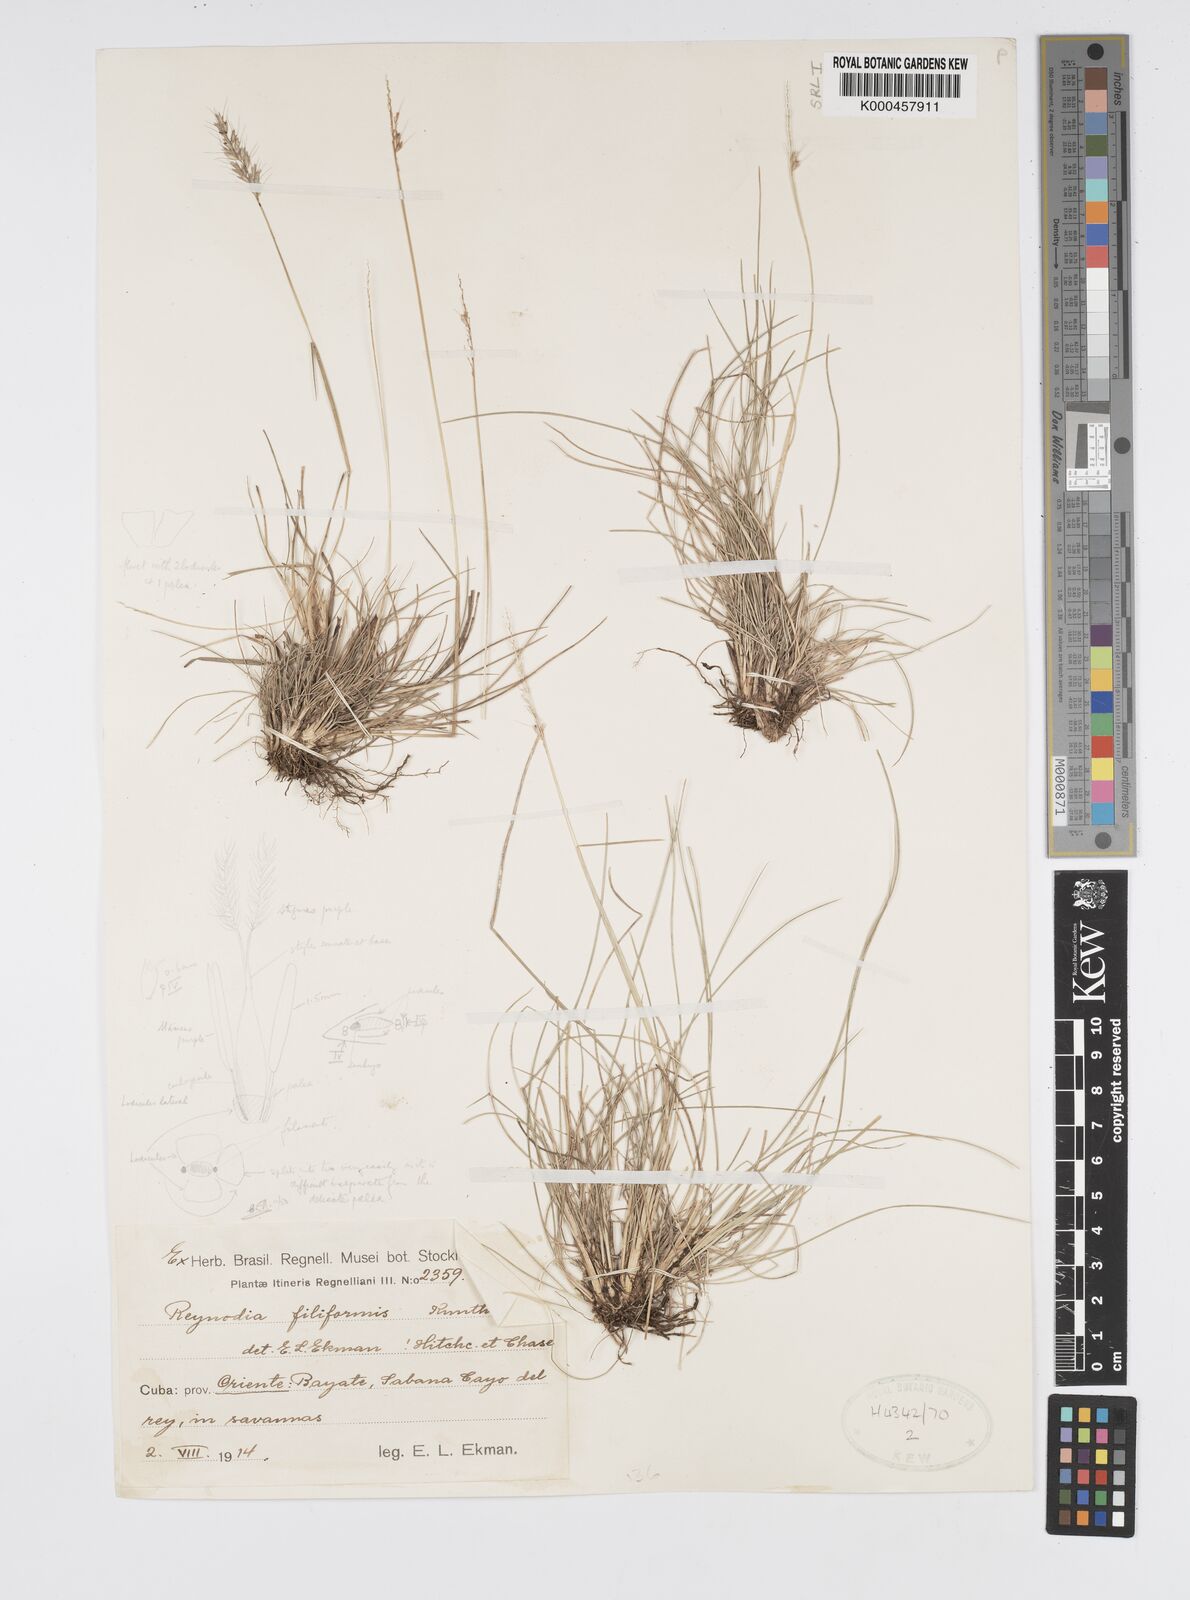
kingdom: Plantae
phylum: Tracheophyta
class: Liliopsida
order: Poales
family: Poaceae
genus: Reynaudia
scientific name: Reynaudia filiformis
